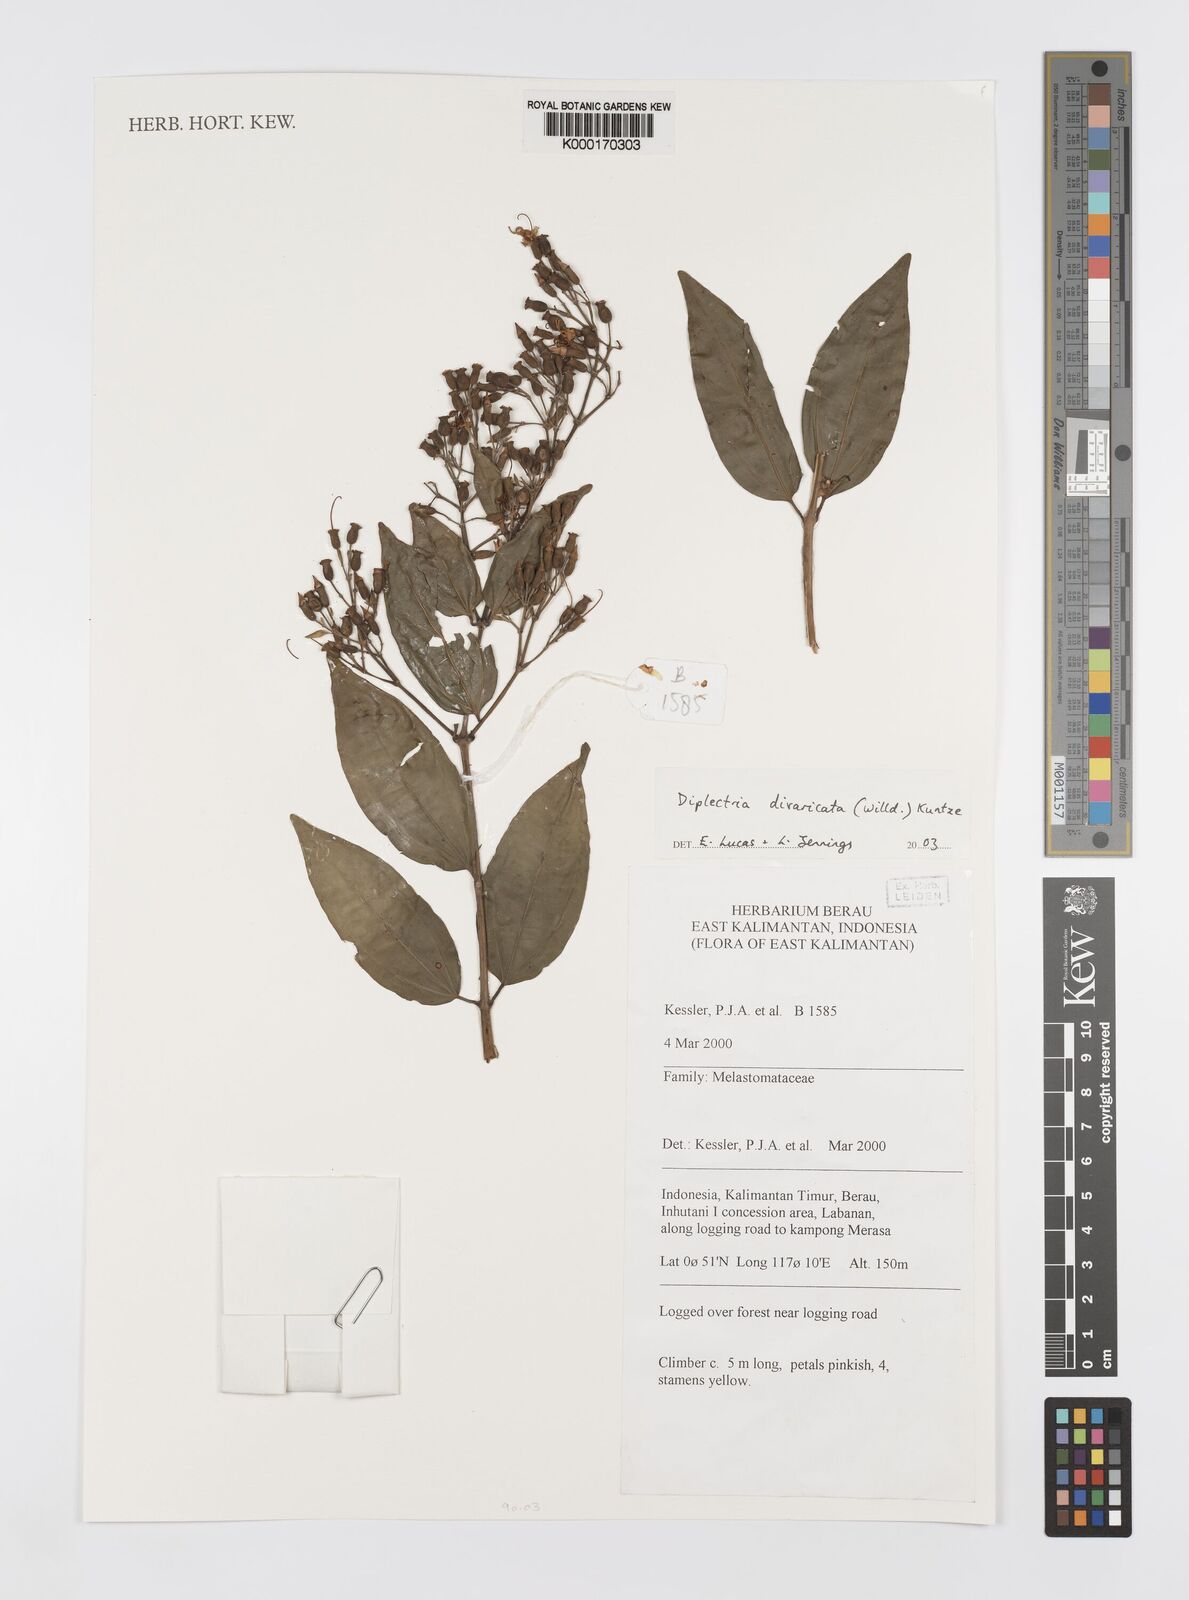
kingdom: Plantae
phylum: Tracheophyta
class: Magnoliopsida
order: Myrtales
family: Melastomataceae
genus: Diplectria
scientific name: Diplectria divaricata
